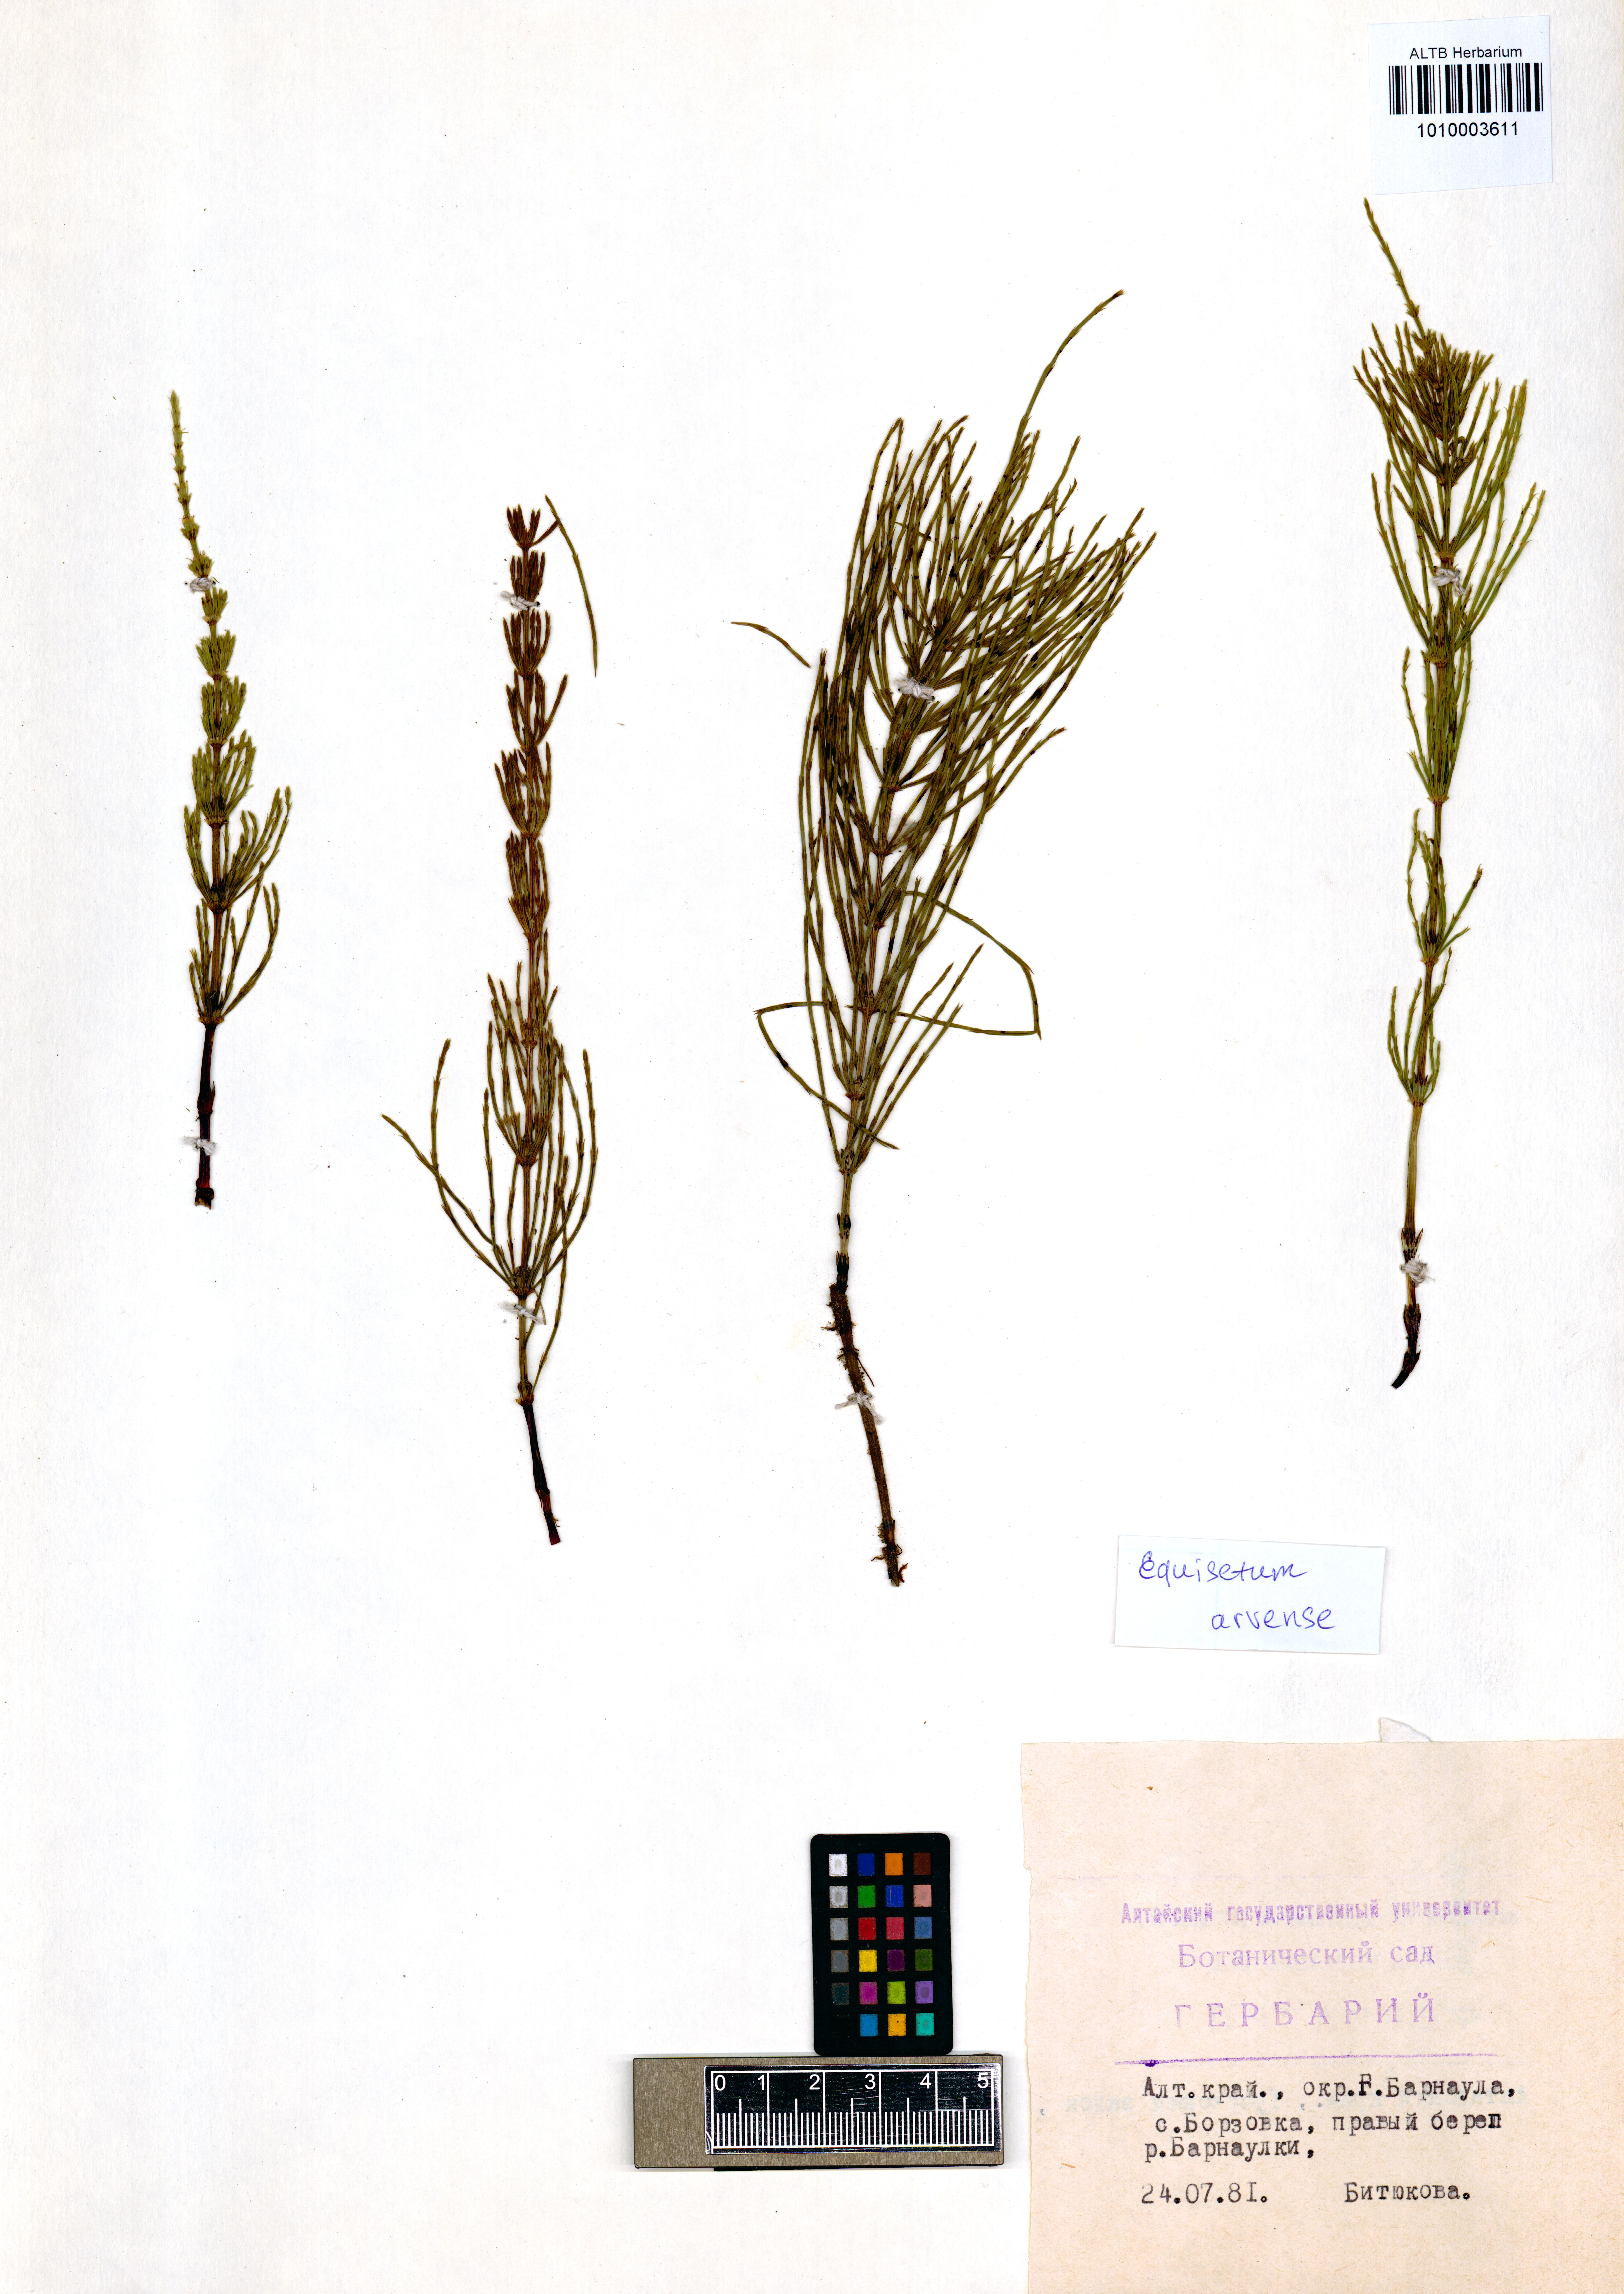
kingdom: Plantae
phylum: Tracheophyta
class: Polypodiopsida
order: Equisetales
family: Equisetaceae
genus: Equisetum
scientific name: Equisetum arvense
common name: Field horsetail
